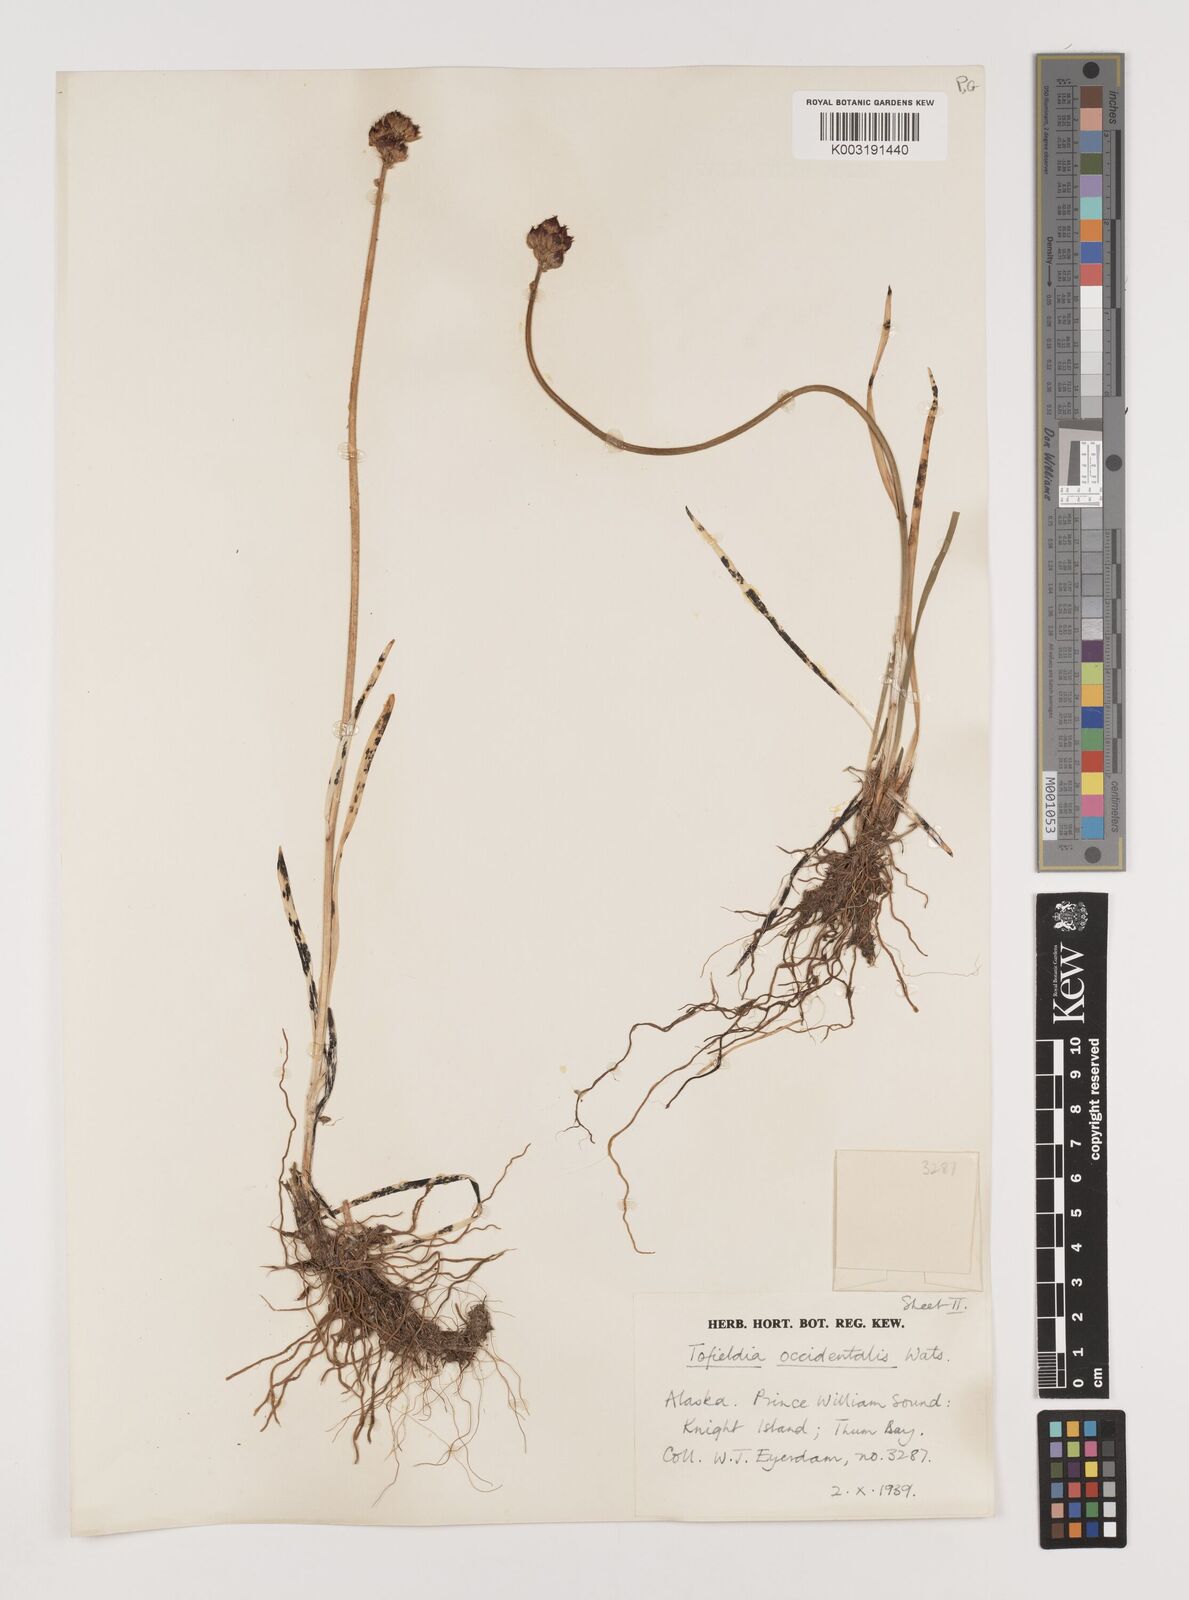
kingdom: Plantae
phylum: Tracheophyta
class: Liliopsida
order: Alismatales
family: Tofieldiaceae
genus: Triantha
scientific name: Triantha occidentalis
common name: Western false asphodel
